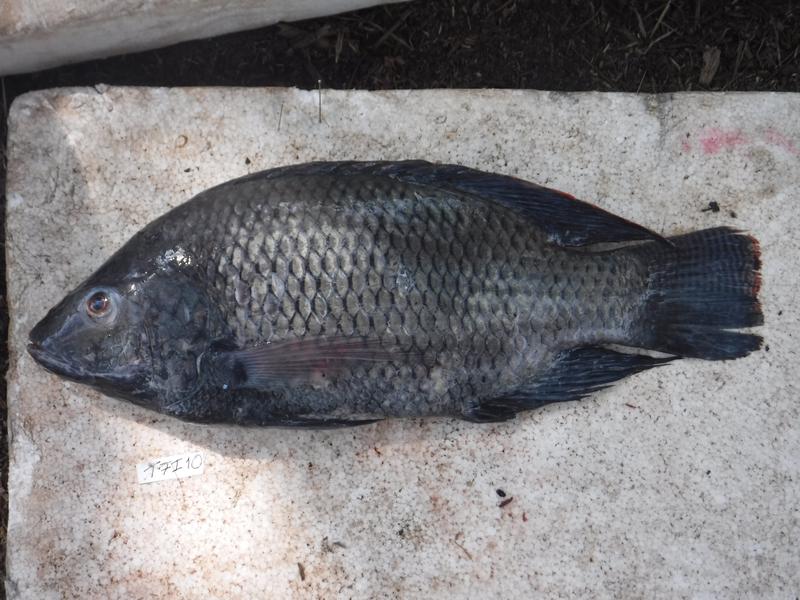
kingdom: Animalia
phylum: Chordata
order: Perciformes
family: Cichlidae
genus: Oreochromis
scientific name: Oreochromis urolepis
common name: Wami tilapia
